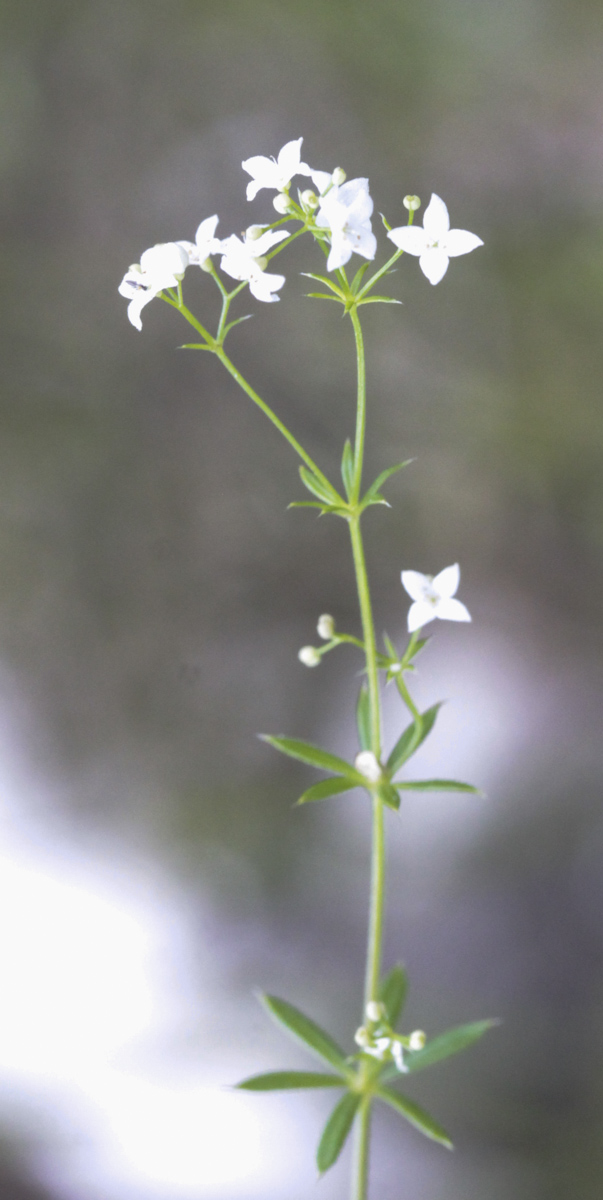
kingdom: Plantae
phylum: Tracheophyta
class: Magnoliopsida
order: Gentianales
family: Rubiaceae
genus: Galium
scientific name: Galium
